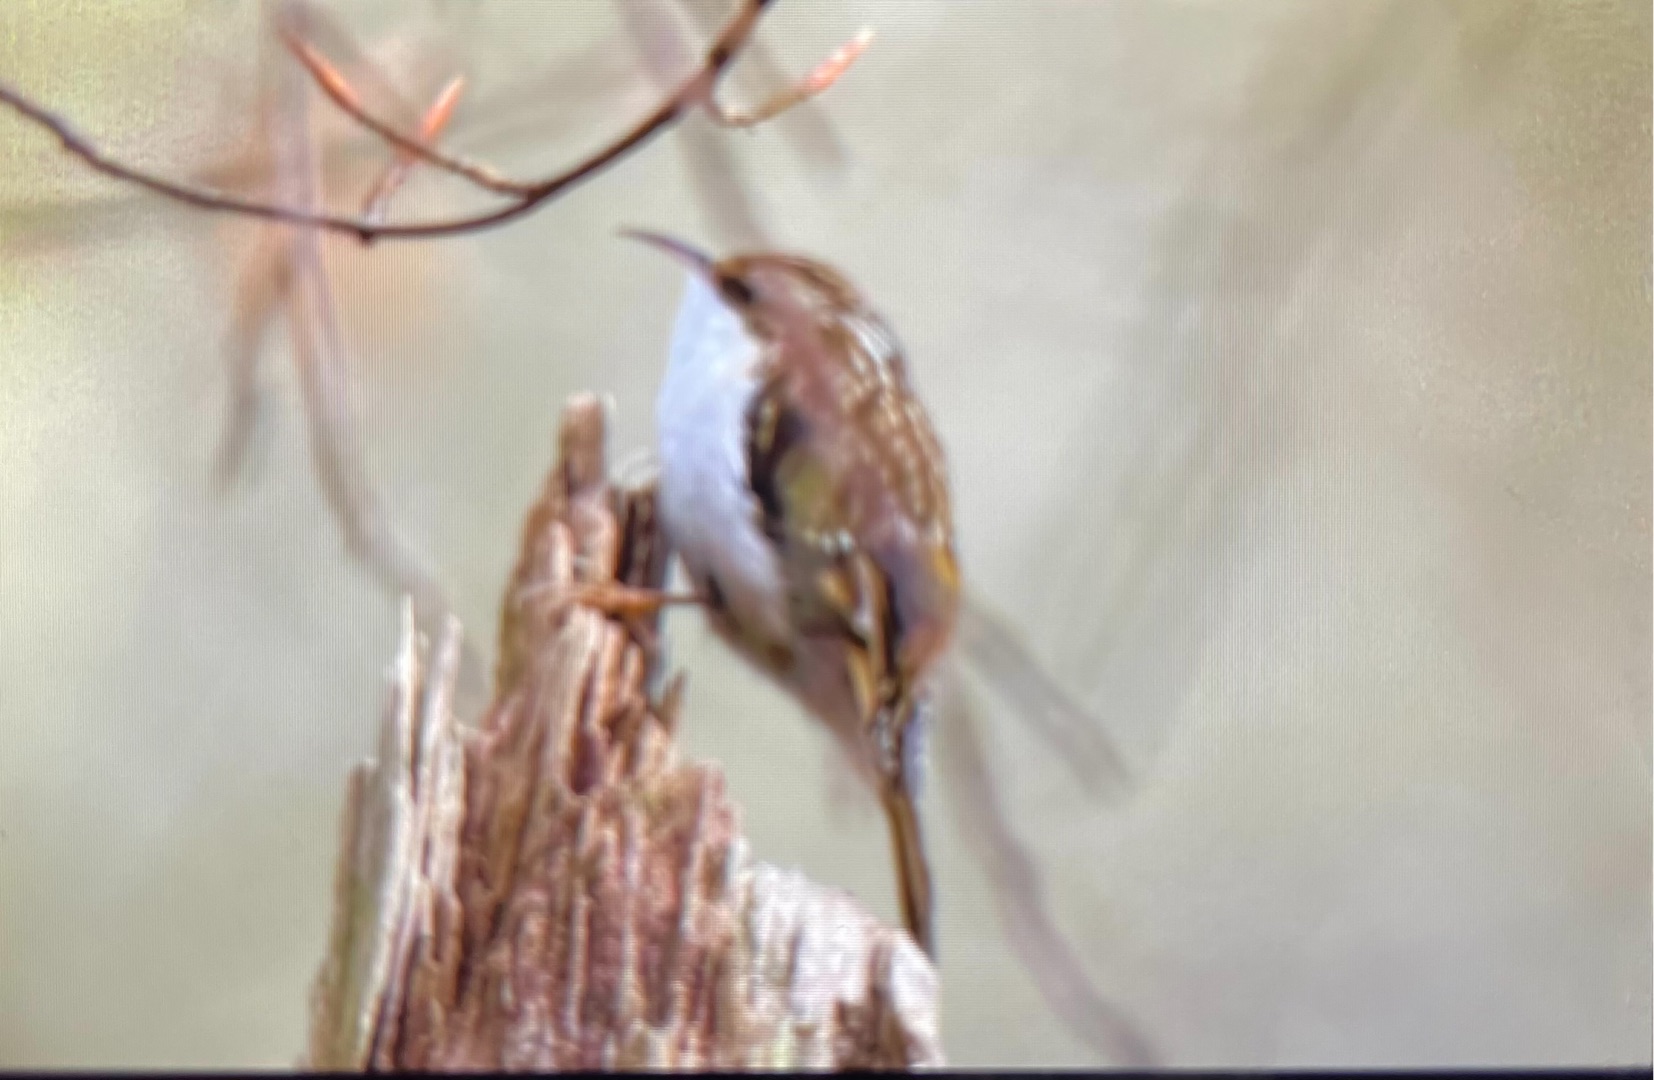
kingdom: Animalia
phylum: Chordata
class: Aves
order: Passeriformes
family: Certhiidae
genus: Certhia
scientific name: Certhia familiaris
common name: Træløber
